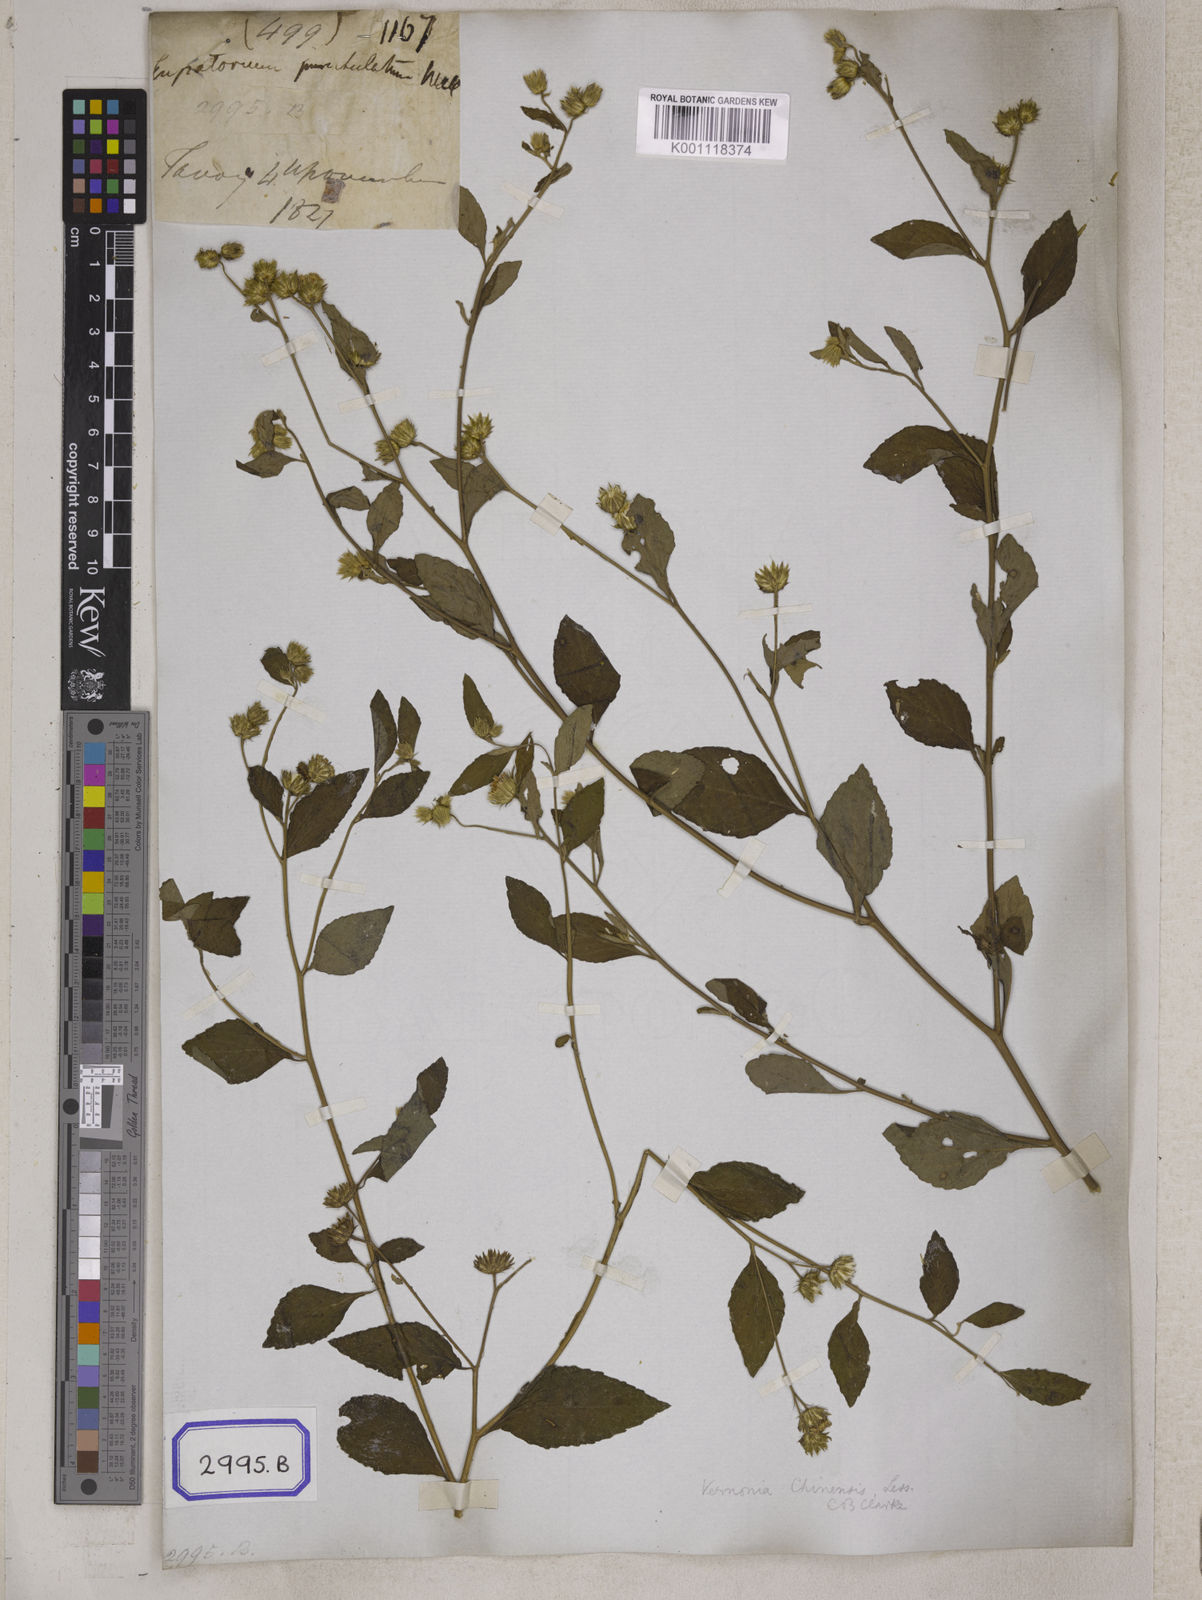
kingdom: Plantae
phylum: Tracheophyta
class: Magnoliopsida
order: Asterales
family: Asteraceae
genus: Cyanthillium
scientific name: Cyanthillium patulum
